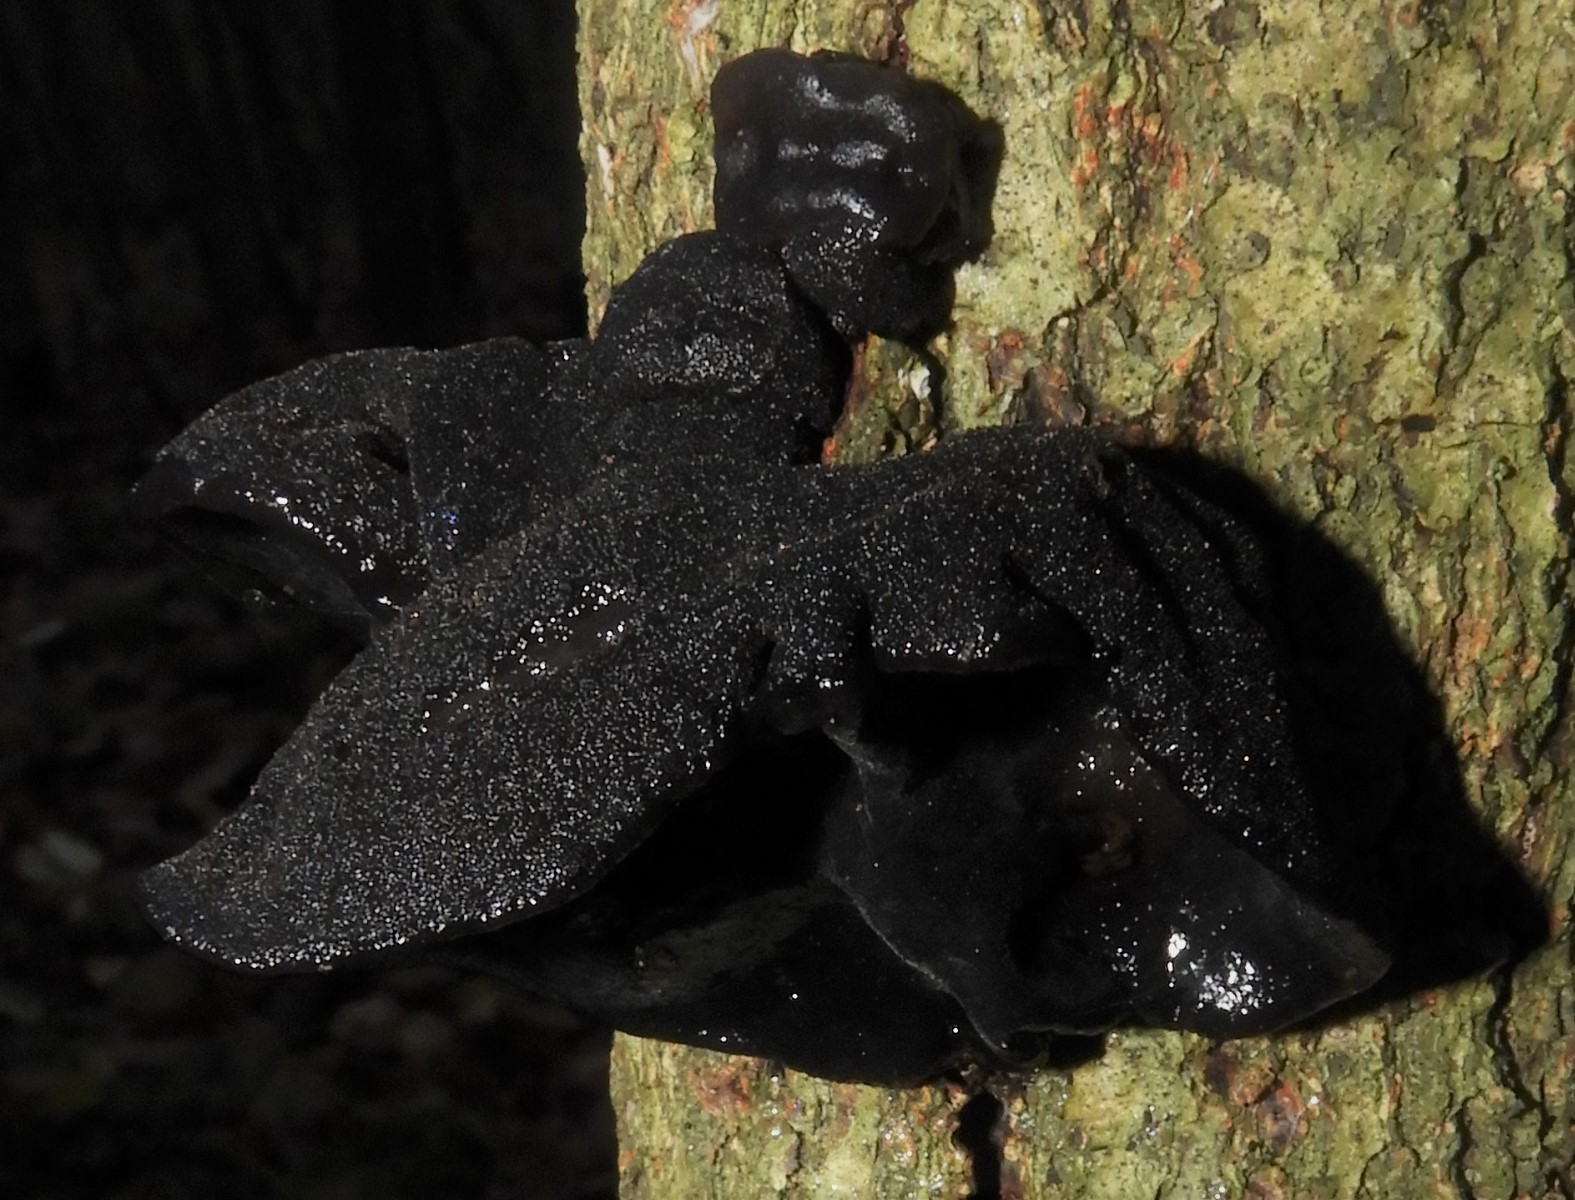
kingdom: Fungi
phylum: Basidiomycota
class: Agaricomycetes
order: Auriculariales
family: Auriculariaceae
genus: Exidia
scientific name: Exidia glandulosa
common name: ege-bævretop
